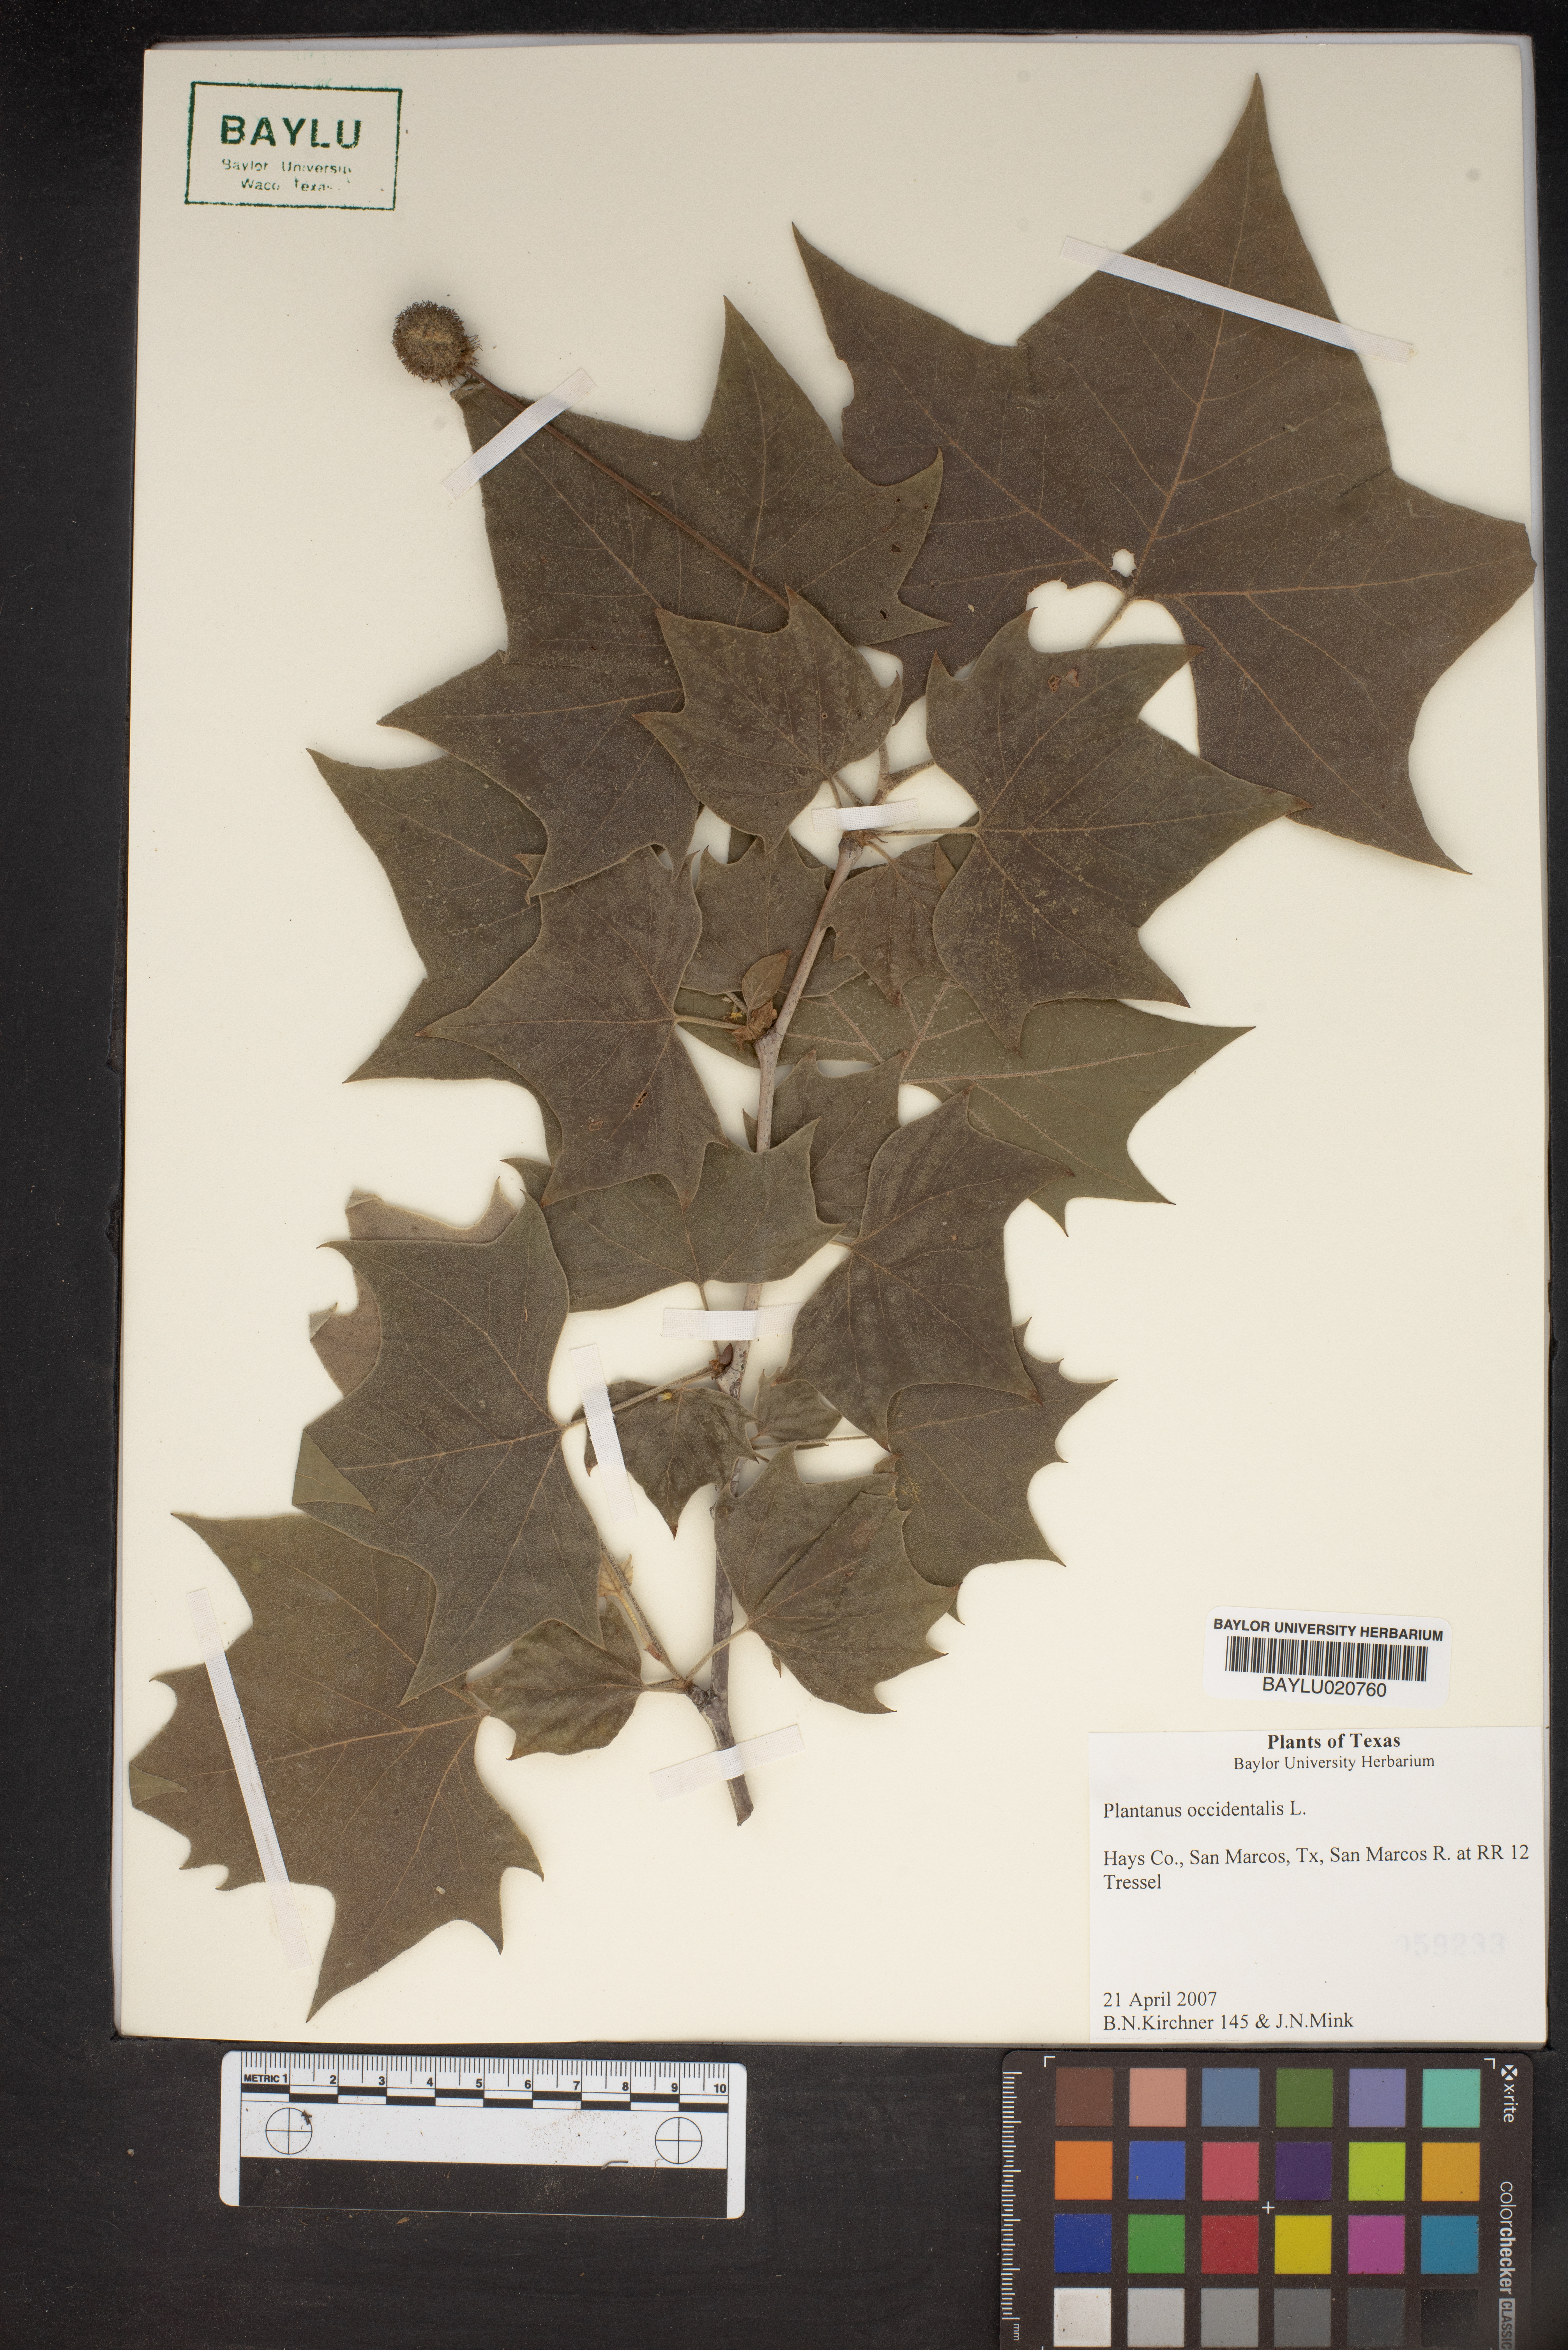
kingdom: Plantae
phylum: Tracheophyta
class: Magnoliopsida
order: Proteales
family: Platanaceae
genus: Platanus
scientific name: Platanus occidentalis
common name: American sycamore
